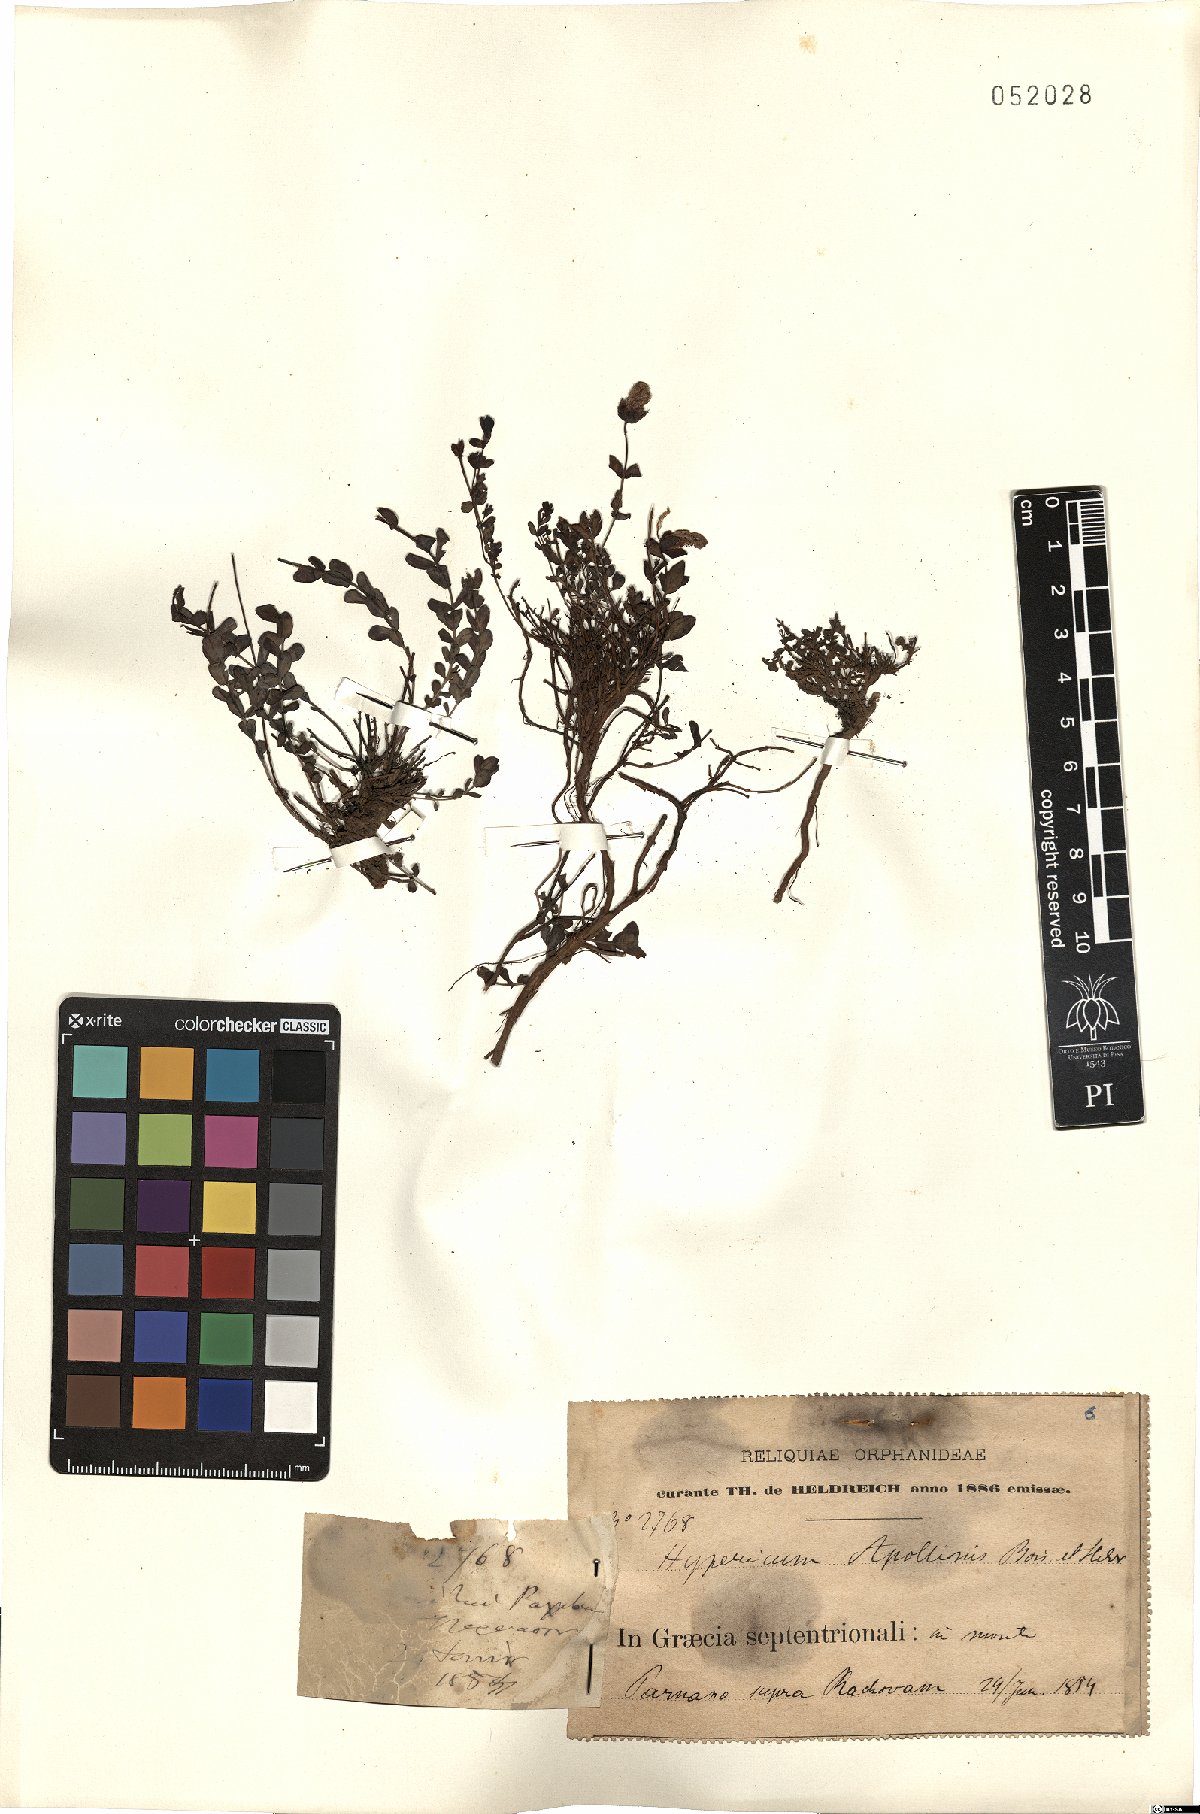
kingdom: Plantae
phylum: Tracheophyta
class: Magnoliopsida
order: Malpighiales
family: Hypericaceae
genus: Hypericum
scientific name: Hypericum rumeliacum
